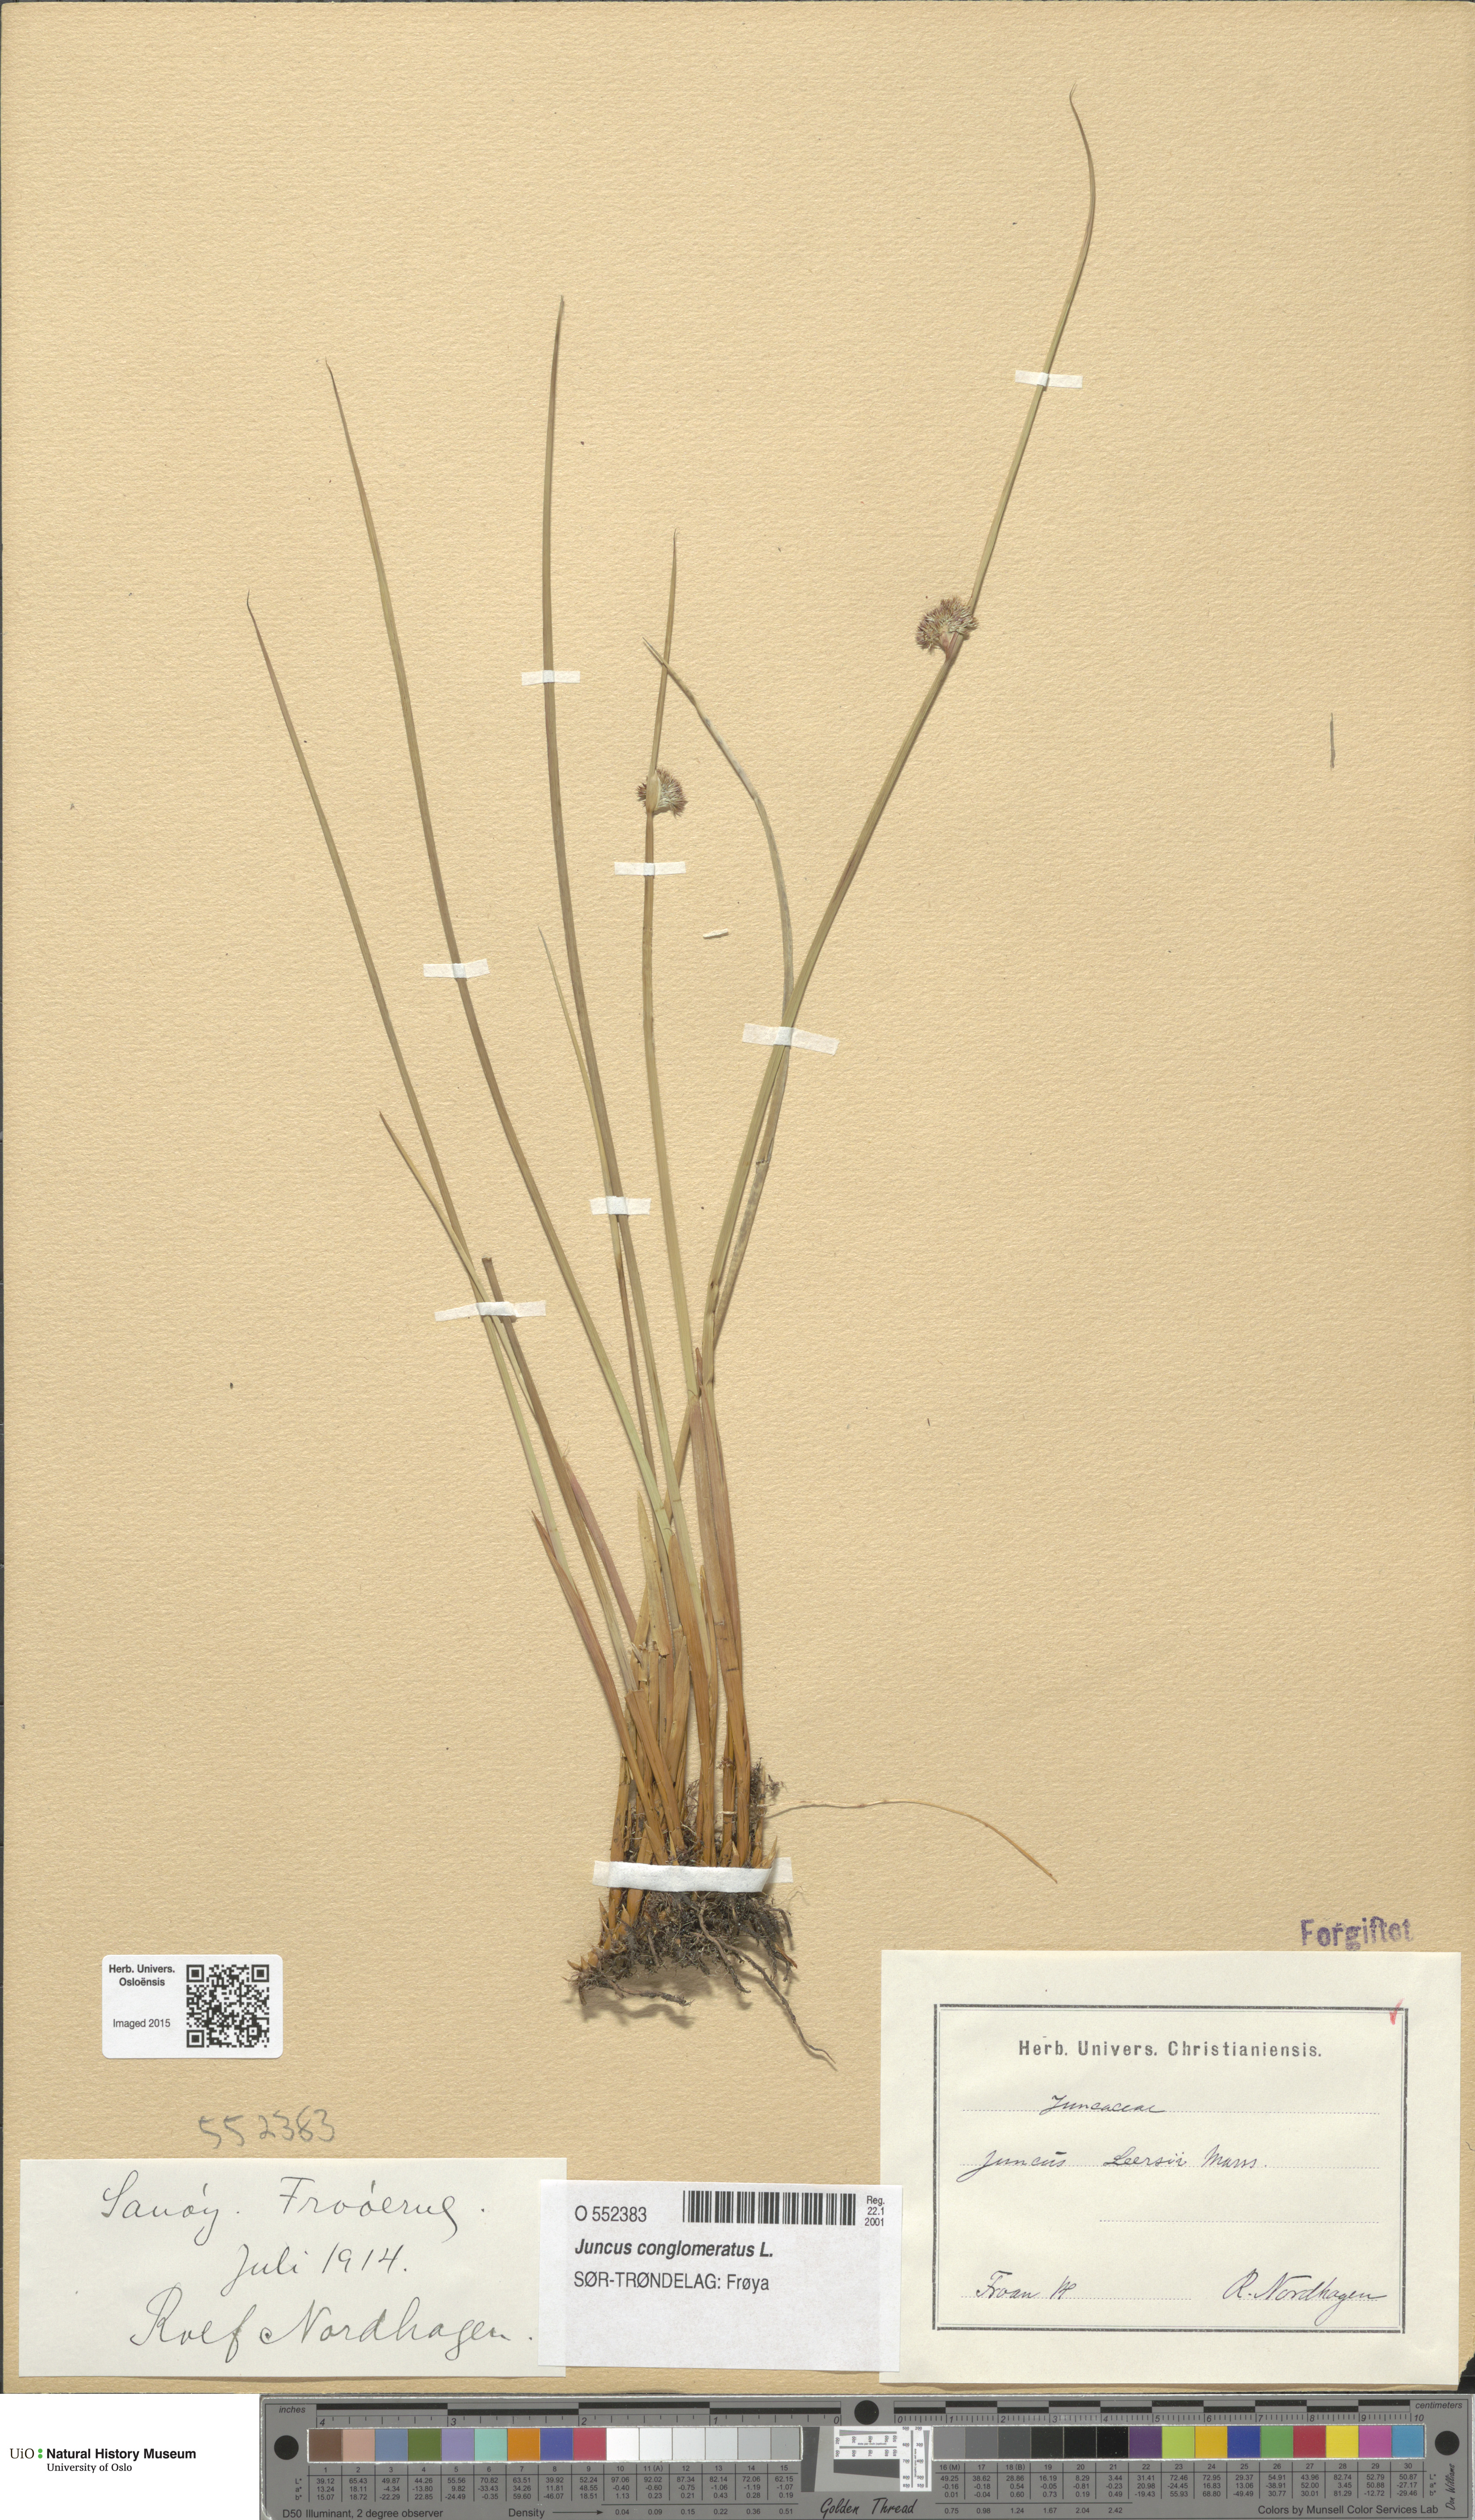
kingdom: Plantae
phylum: Tracheophyta
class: Liliopsida
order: Poales
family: Juncaceae
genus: Juncus
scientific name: Juncus conglomeratus
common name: Compact rush
